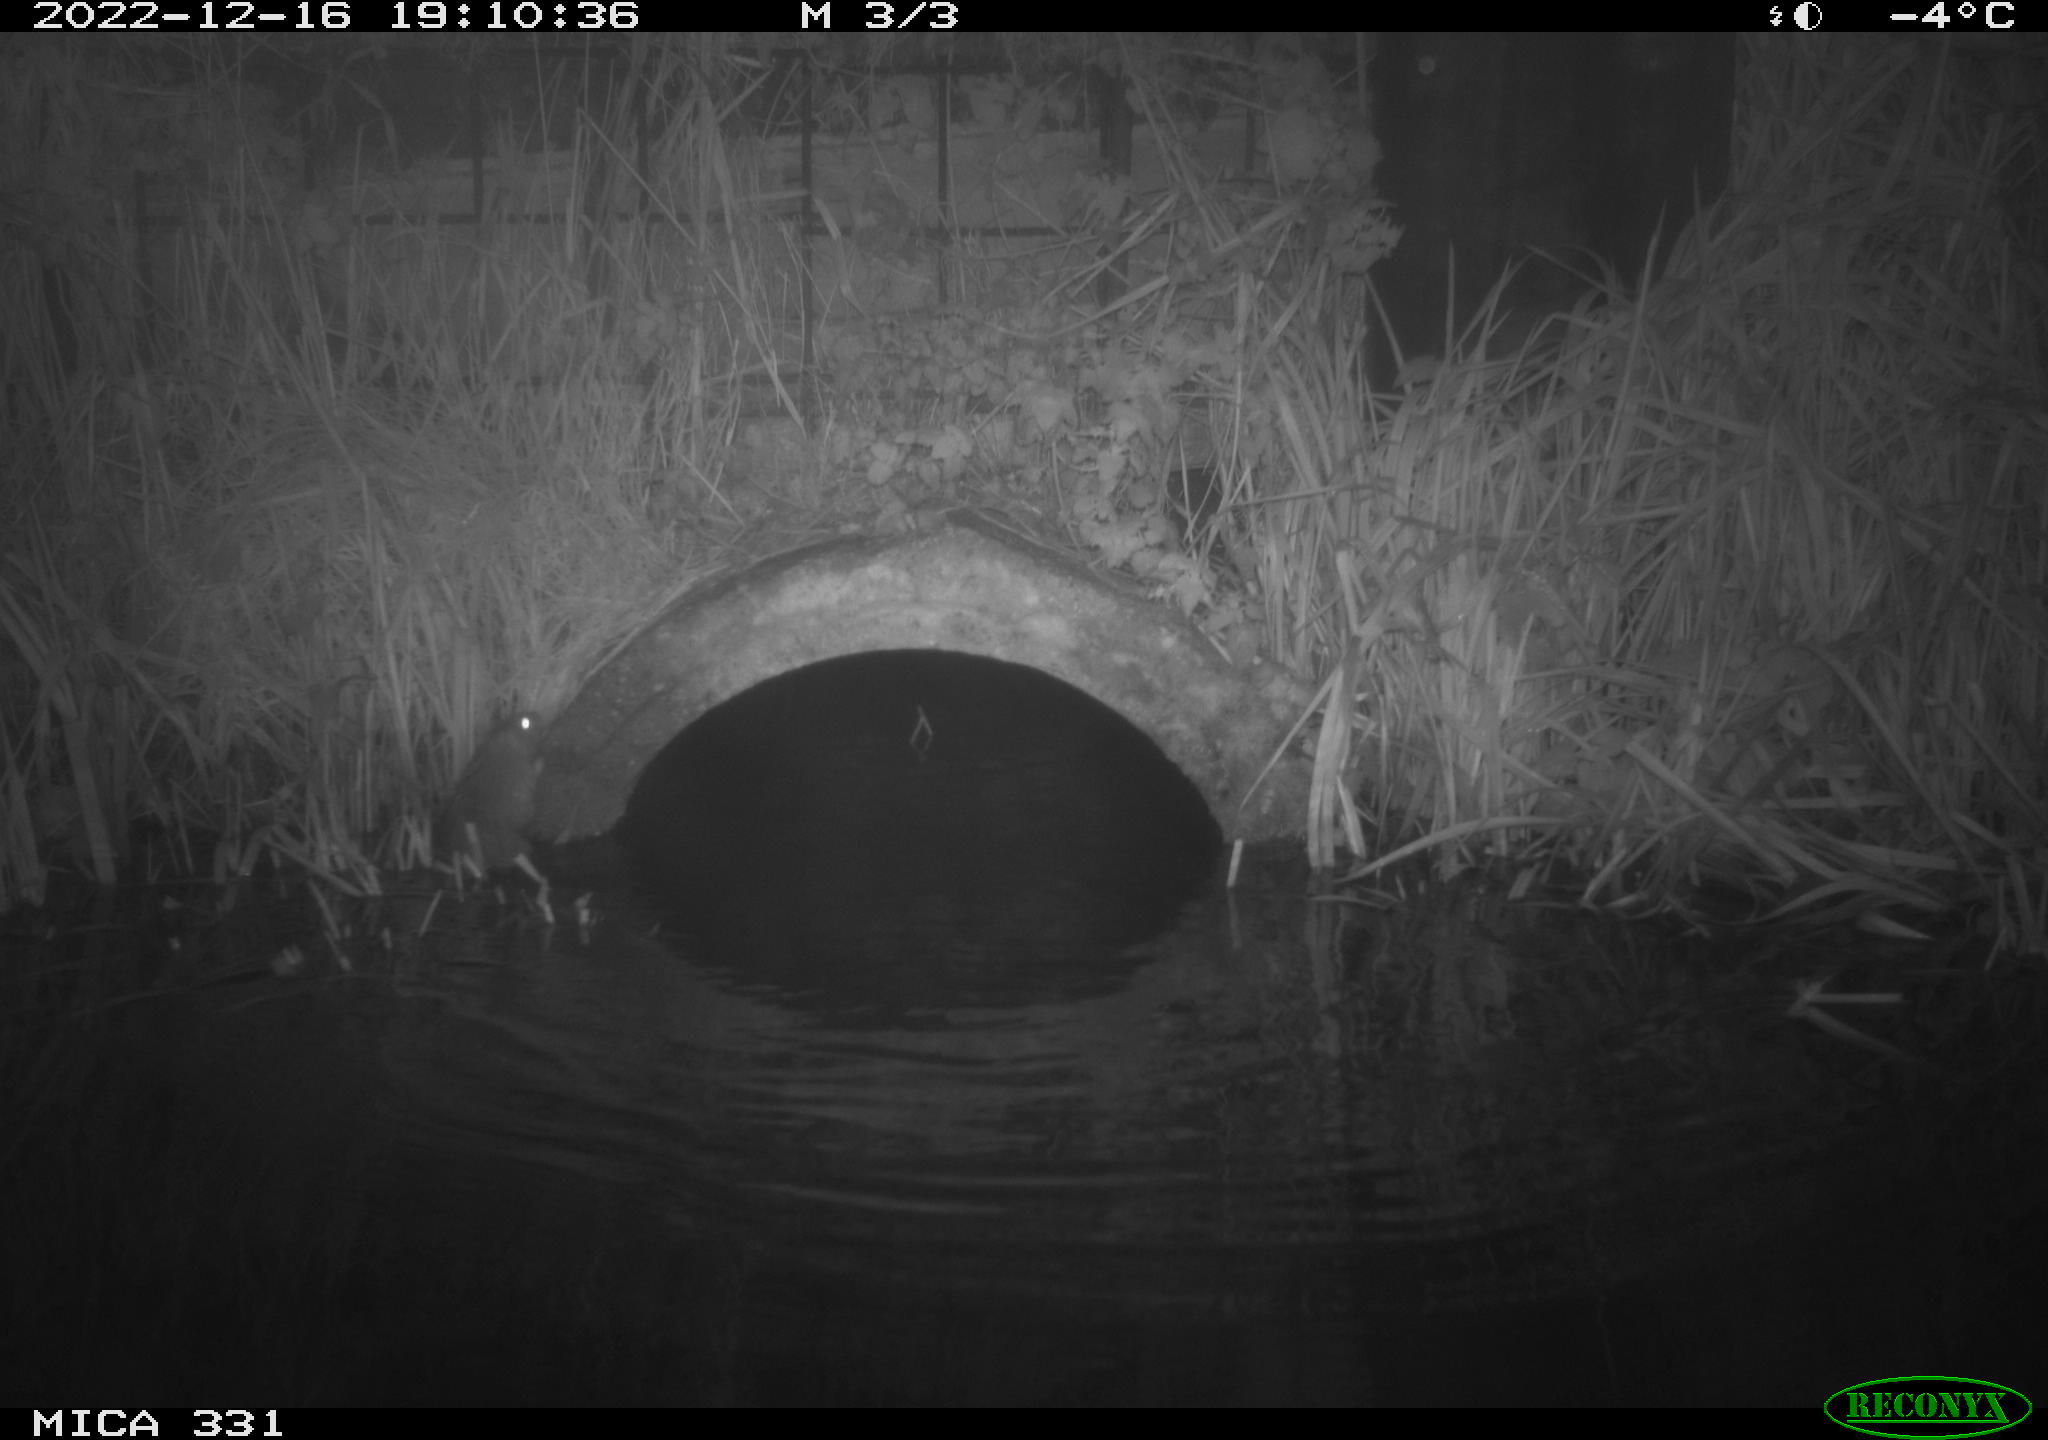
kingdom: Animalia
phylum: Chordata
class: Mammalia
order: Rodentia
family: Muridae
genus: Rattus
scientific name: Rattus norvegicus
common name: Brown rat
